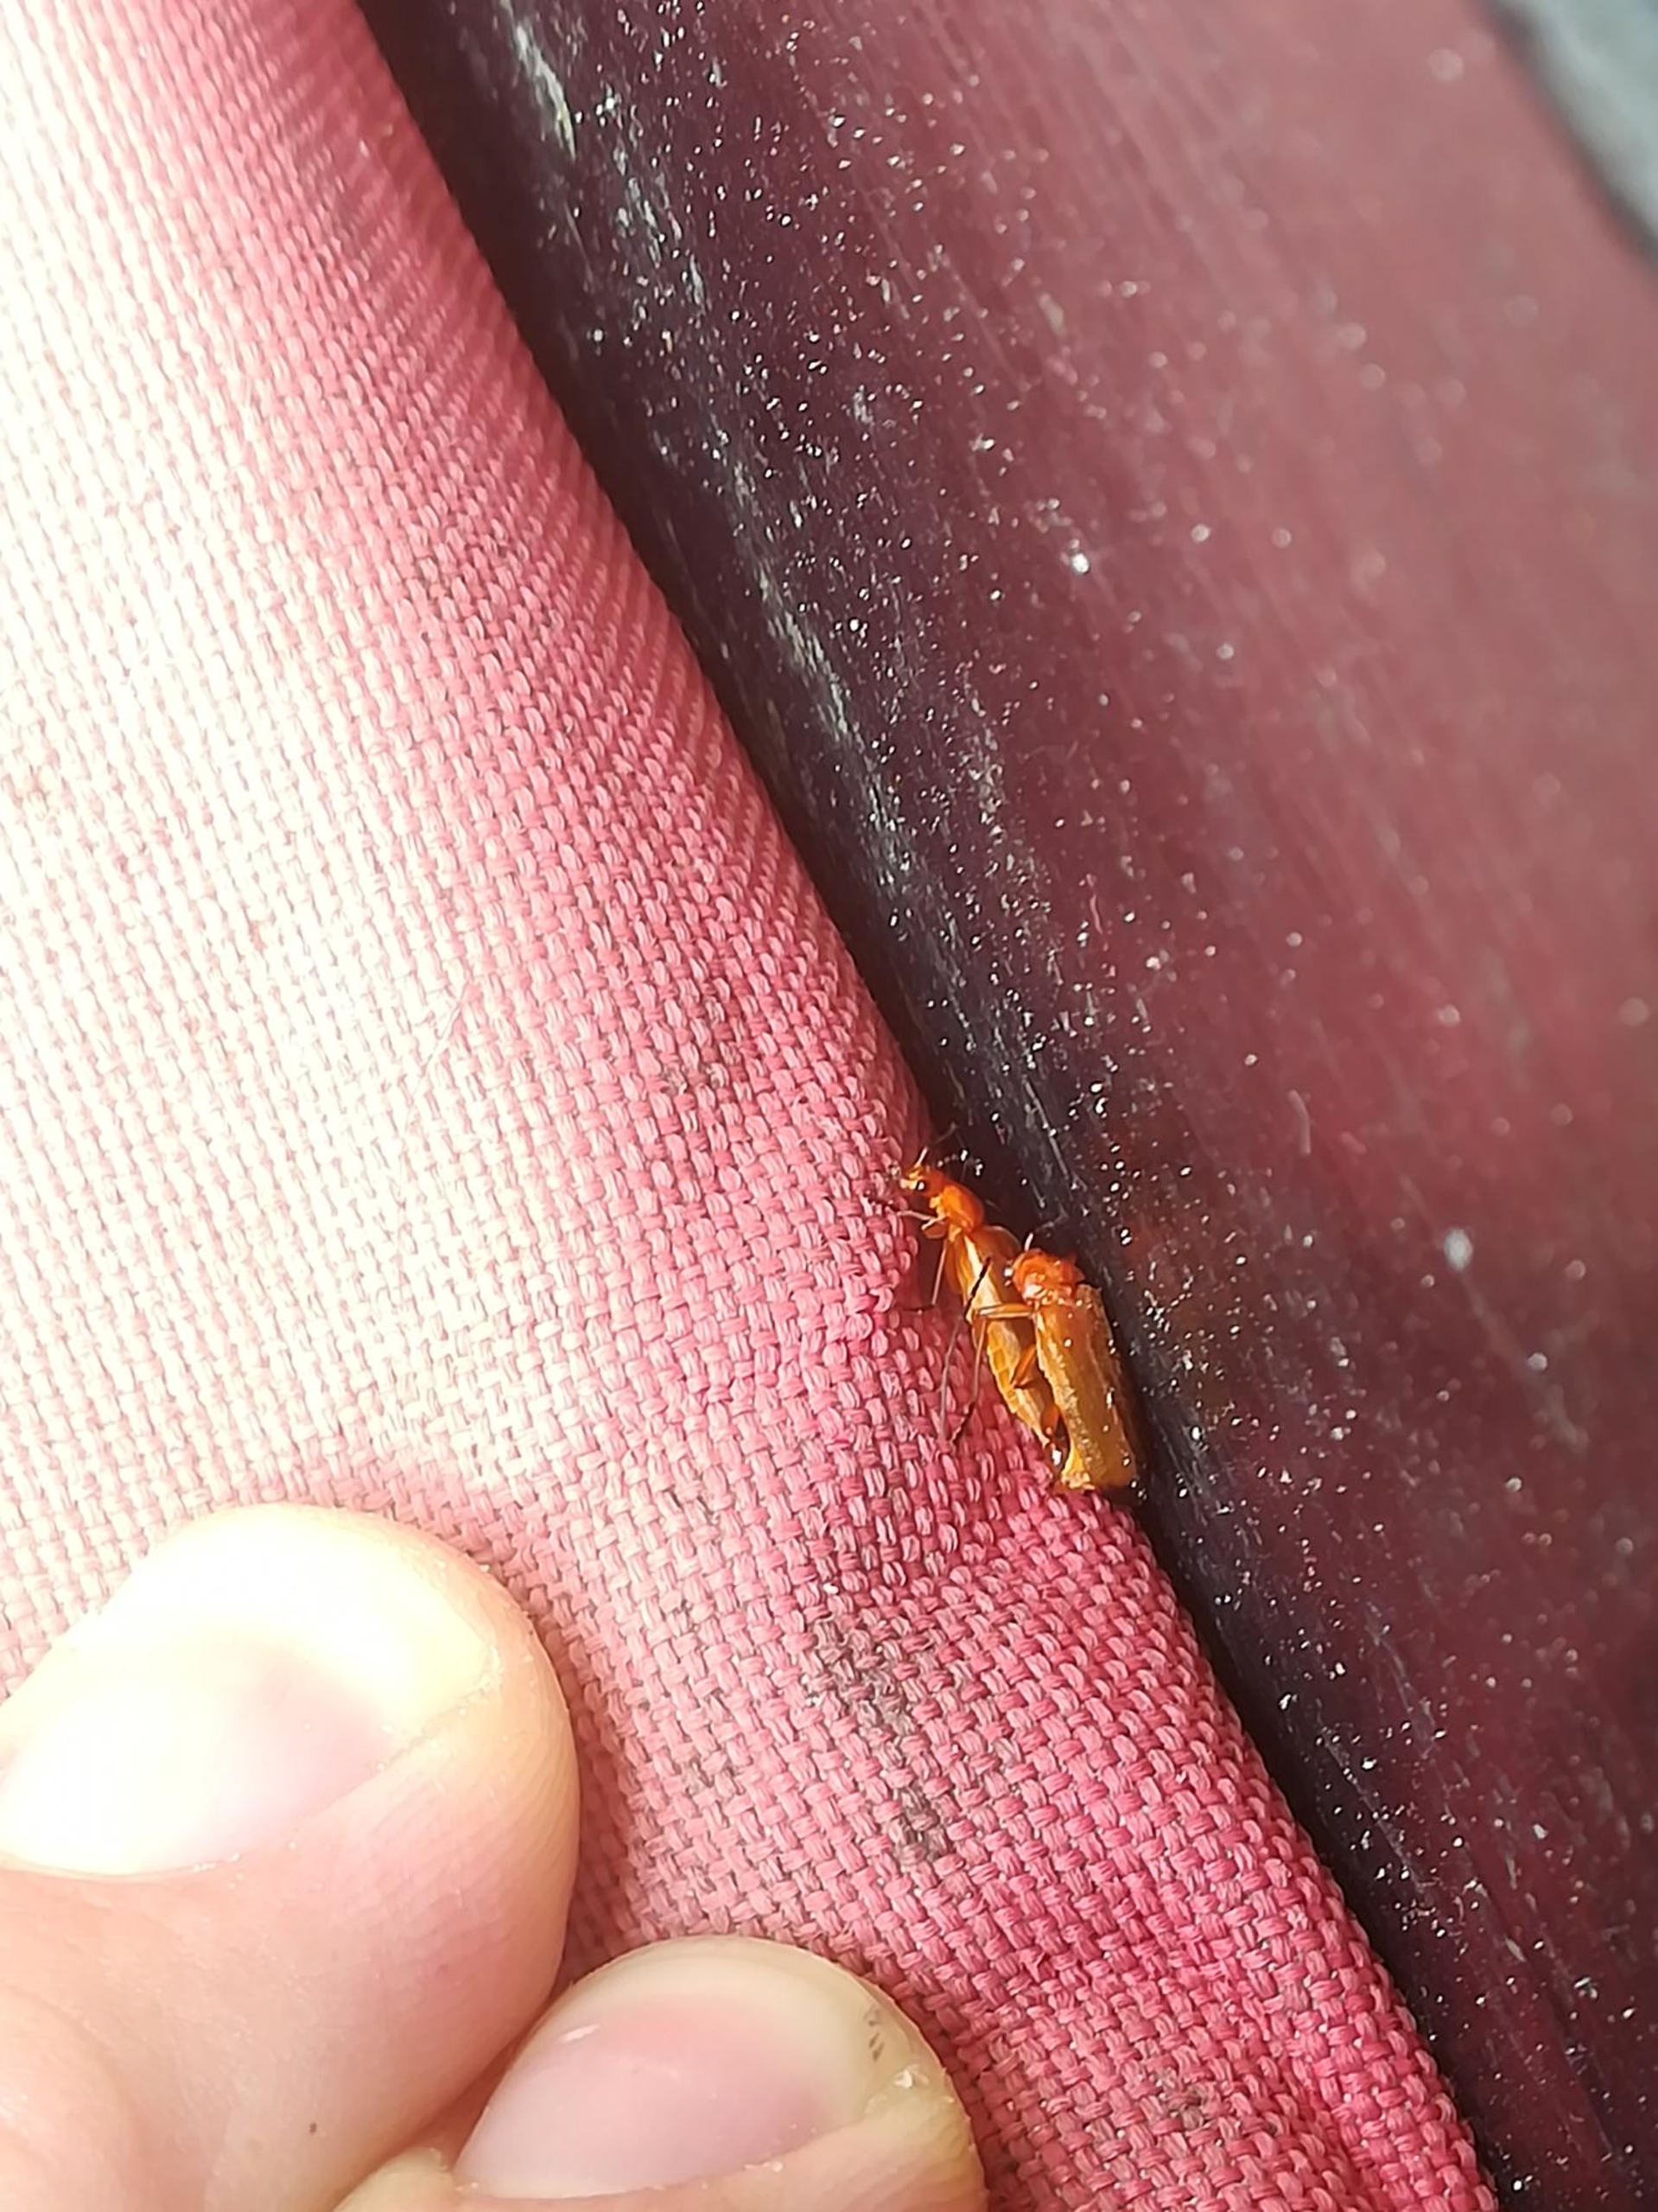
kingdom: Animalia
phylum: Arthropoda
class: Insecta
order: Coleoptera
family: Cantharidae
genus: Rhagonycha
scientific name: Rhagonycha fulva
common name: Præstebille
